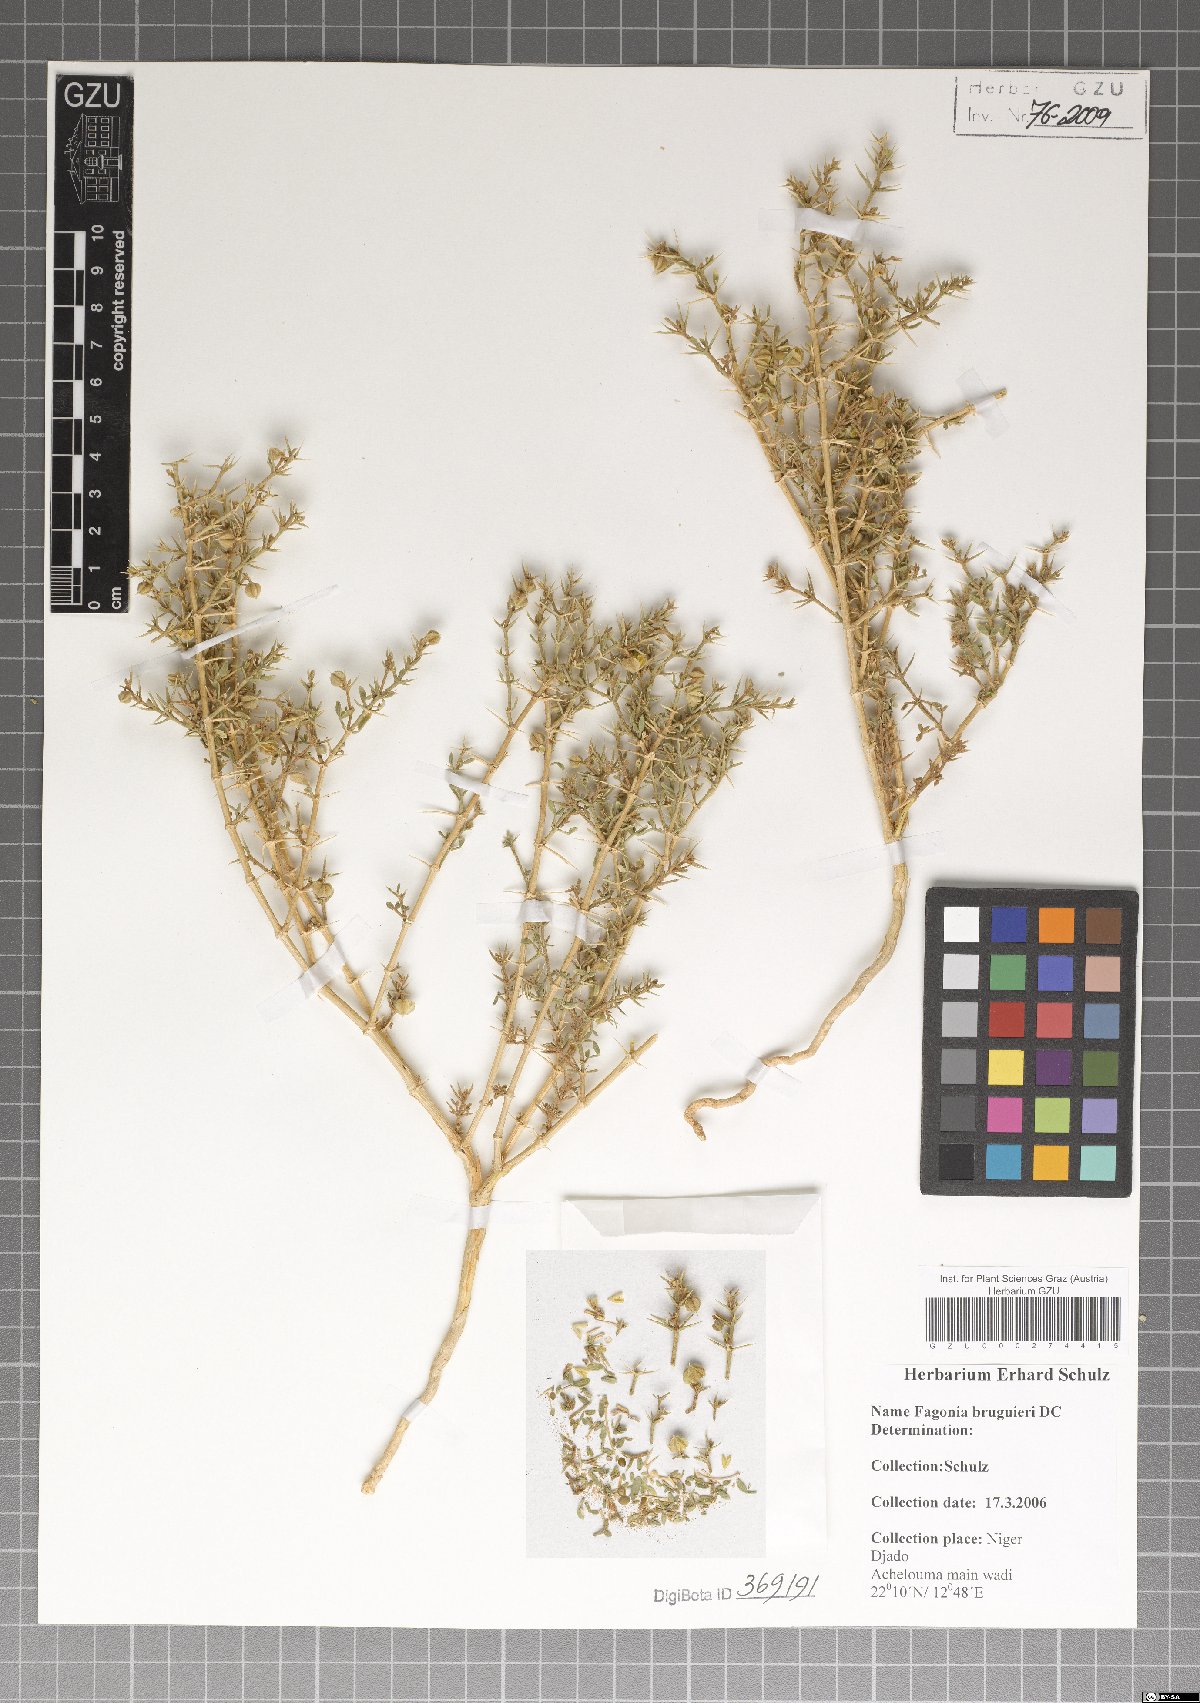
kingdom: Plantae
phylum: Tracheophyta
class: Magnoliopsida
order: Zygophyllales
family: Zygophyllaceae
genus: Fagonia
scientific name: Fagonia bruguieri
